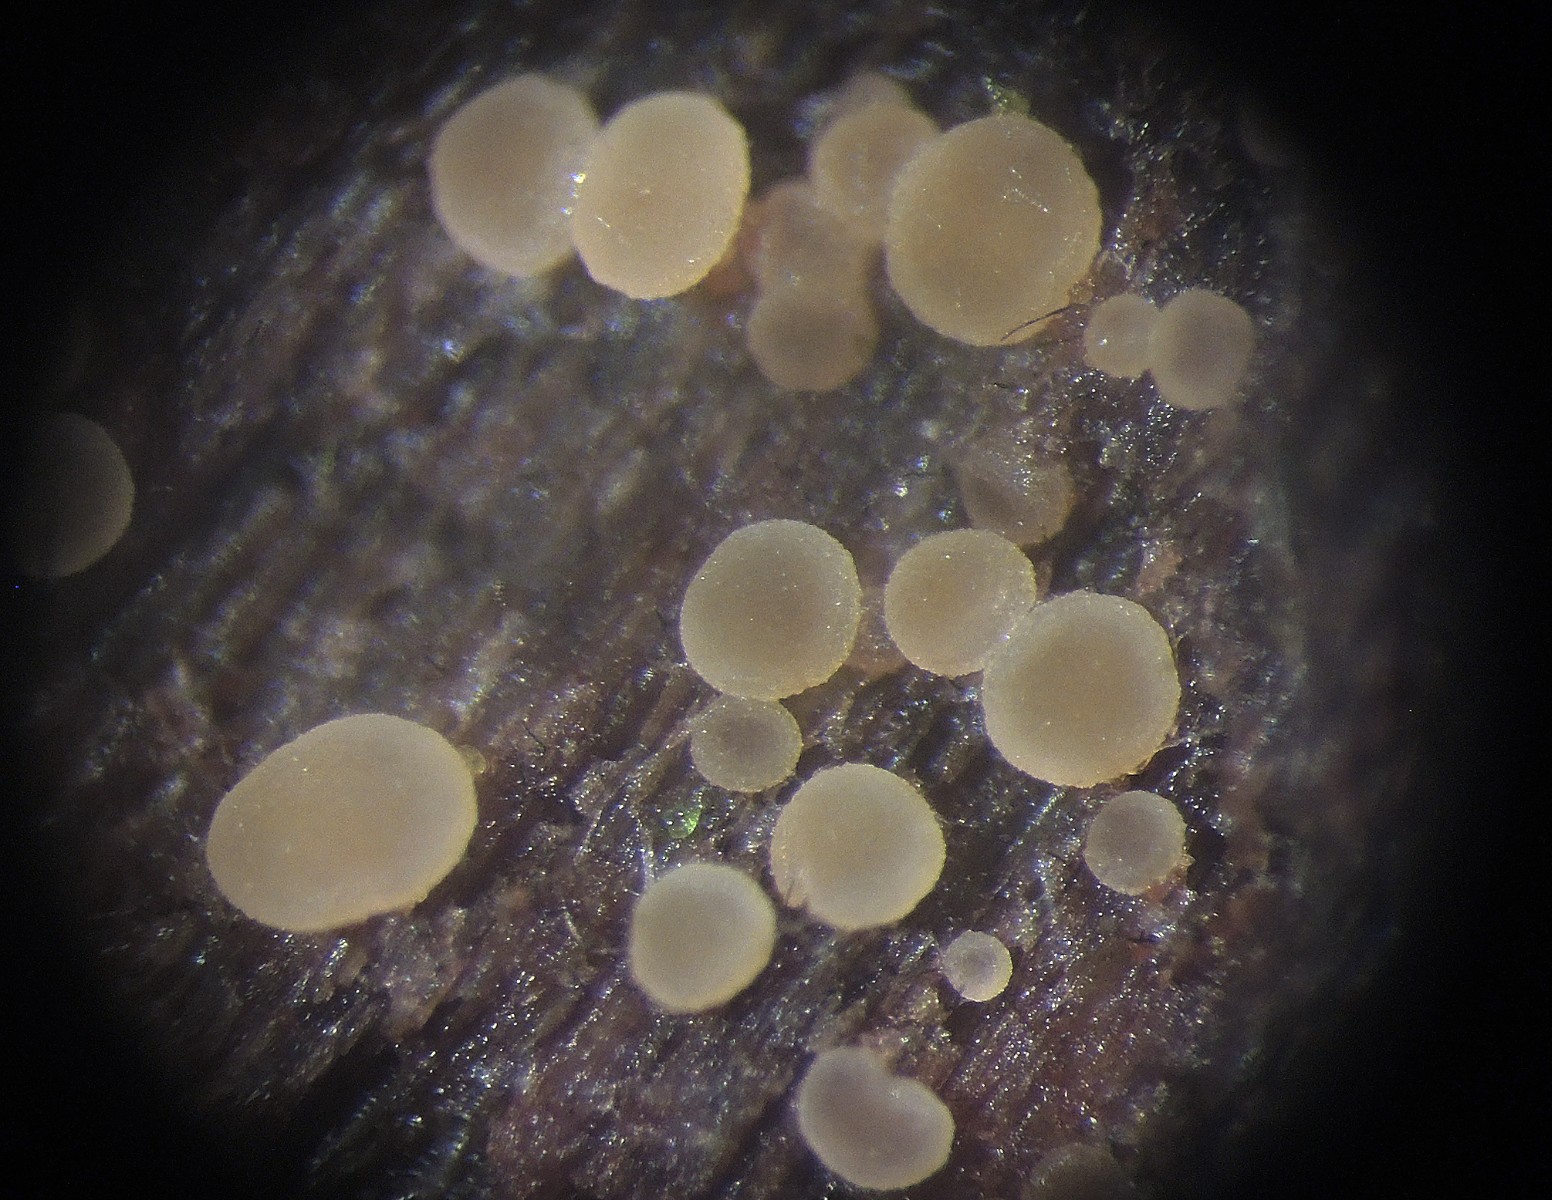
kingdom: Fungi
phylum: Ascomycota
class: Leotiomycetes
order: Helotiales
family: Leptodontidiaceae
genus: Leptodontidium
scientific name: Leptodontidium trabinellum
